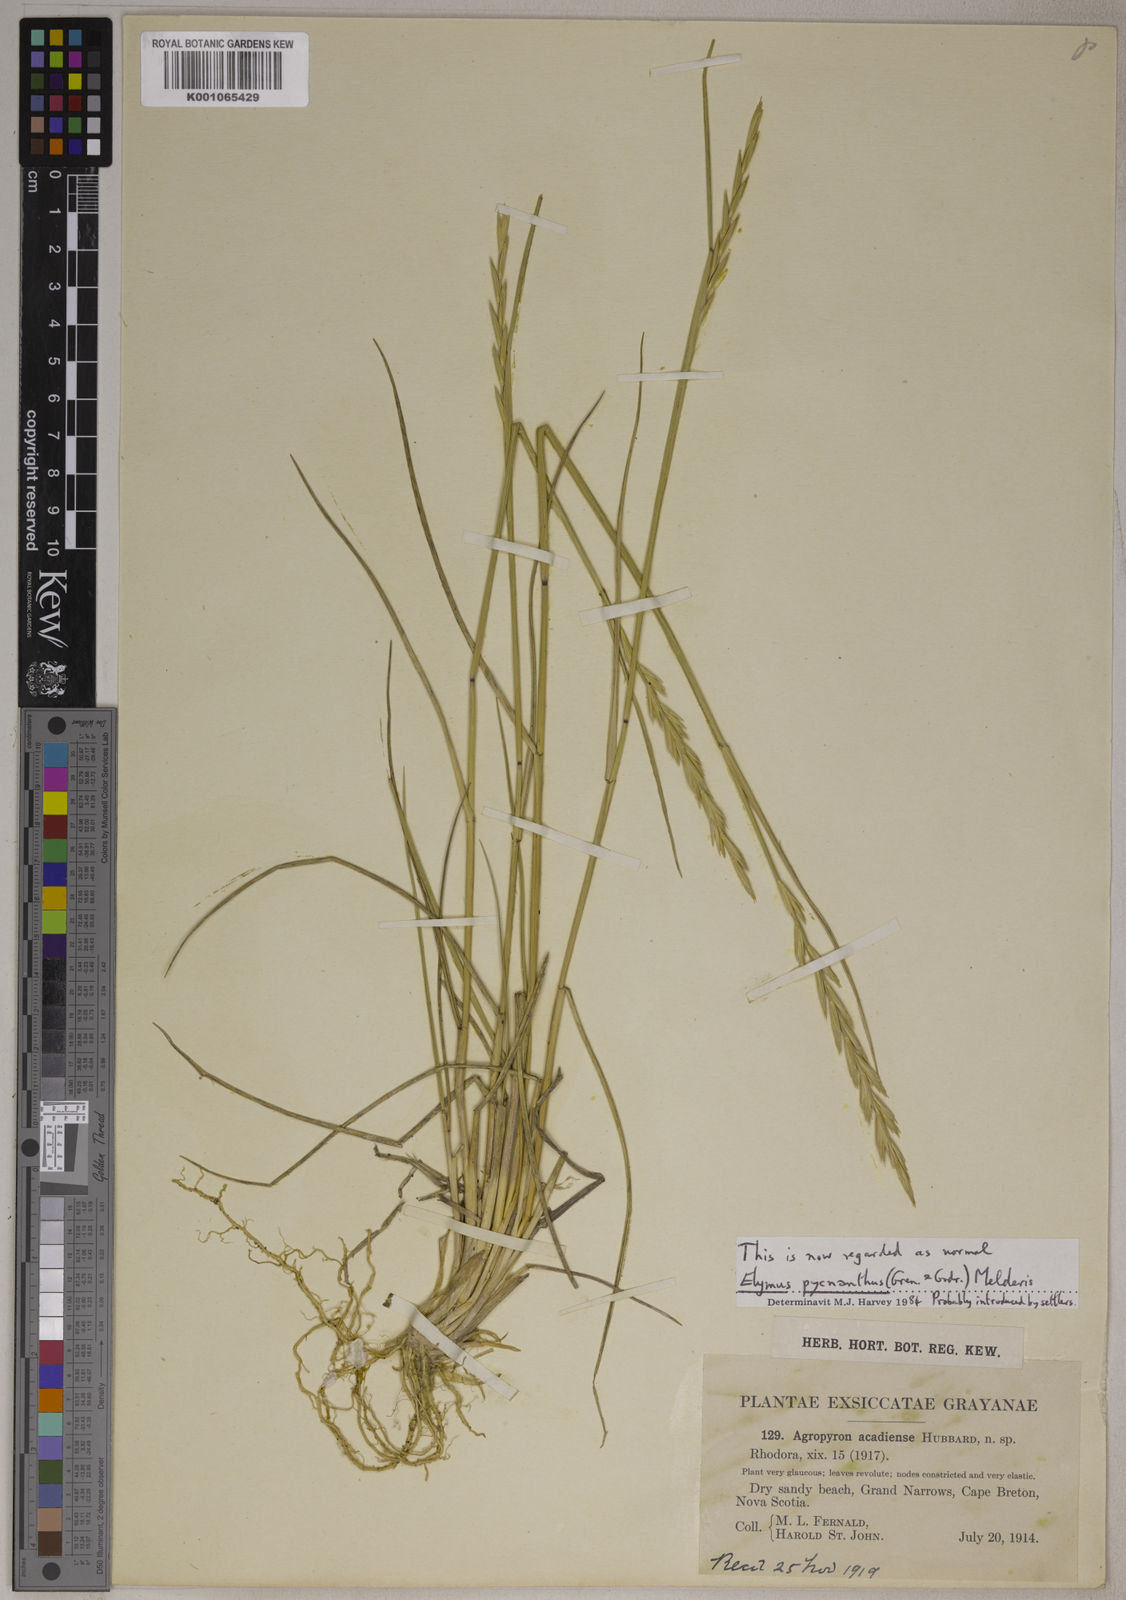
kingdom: Plantae
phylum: Tracheophyta
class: Liliopsida
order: Poales
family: Poaceae
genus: Elymus
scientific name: Elymus pungens
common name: Sea couch
